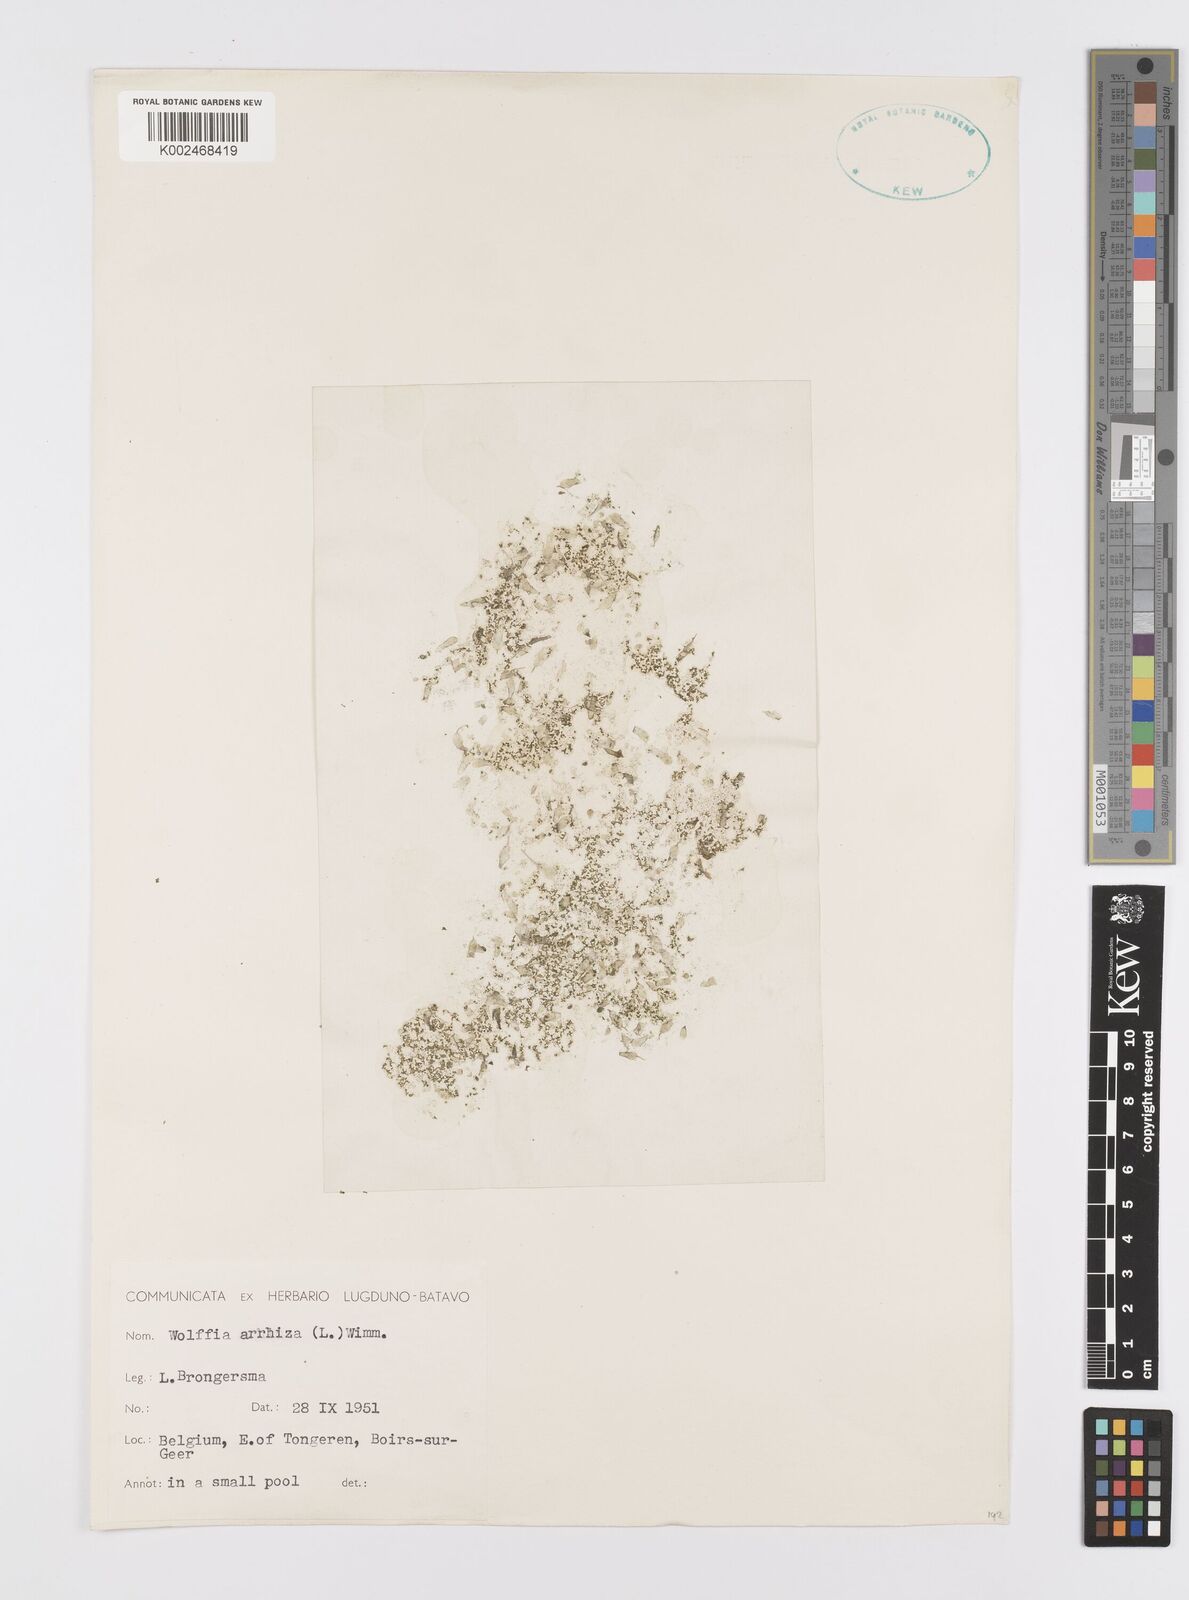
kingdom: Plantae
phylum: Tracheophyta
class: Liliopsida
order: Alismatales
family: Araceae
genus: Wolffia
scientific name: Wolffia arrhiza
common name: Rootless duckweed
